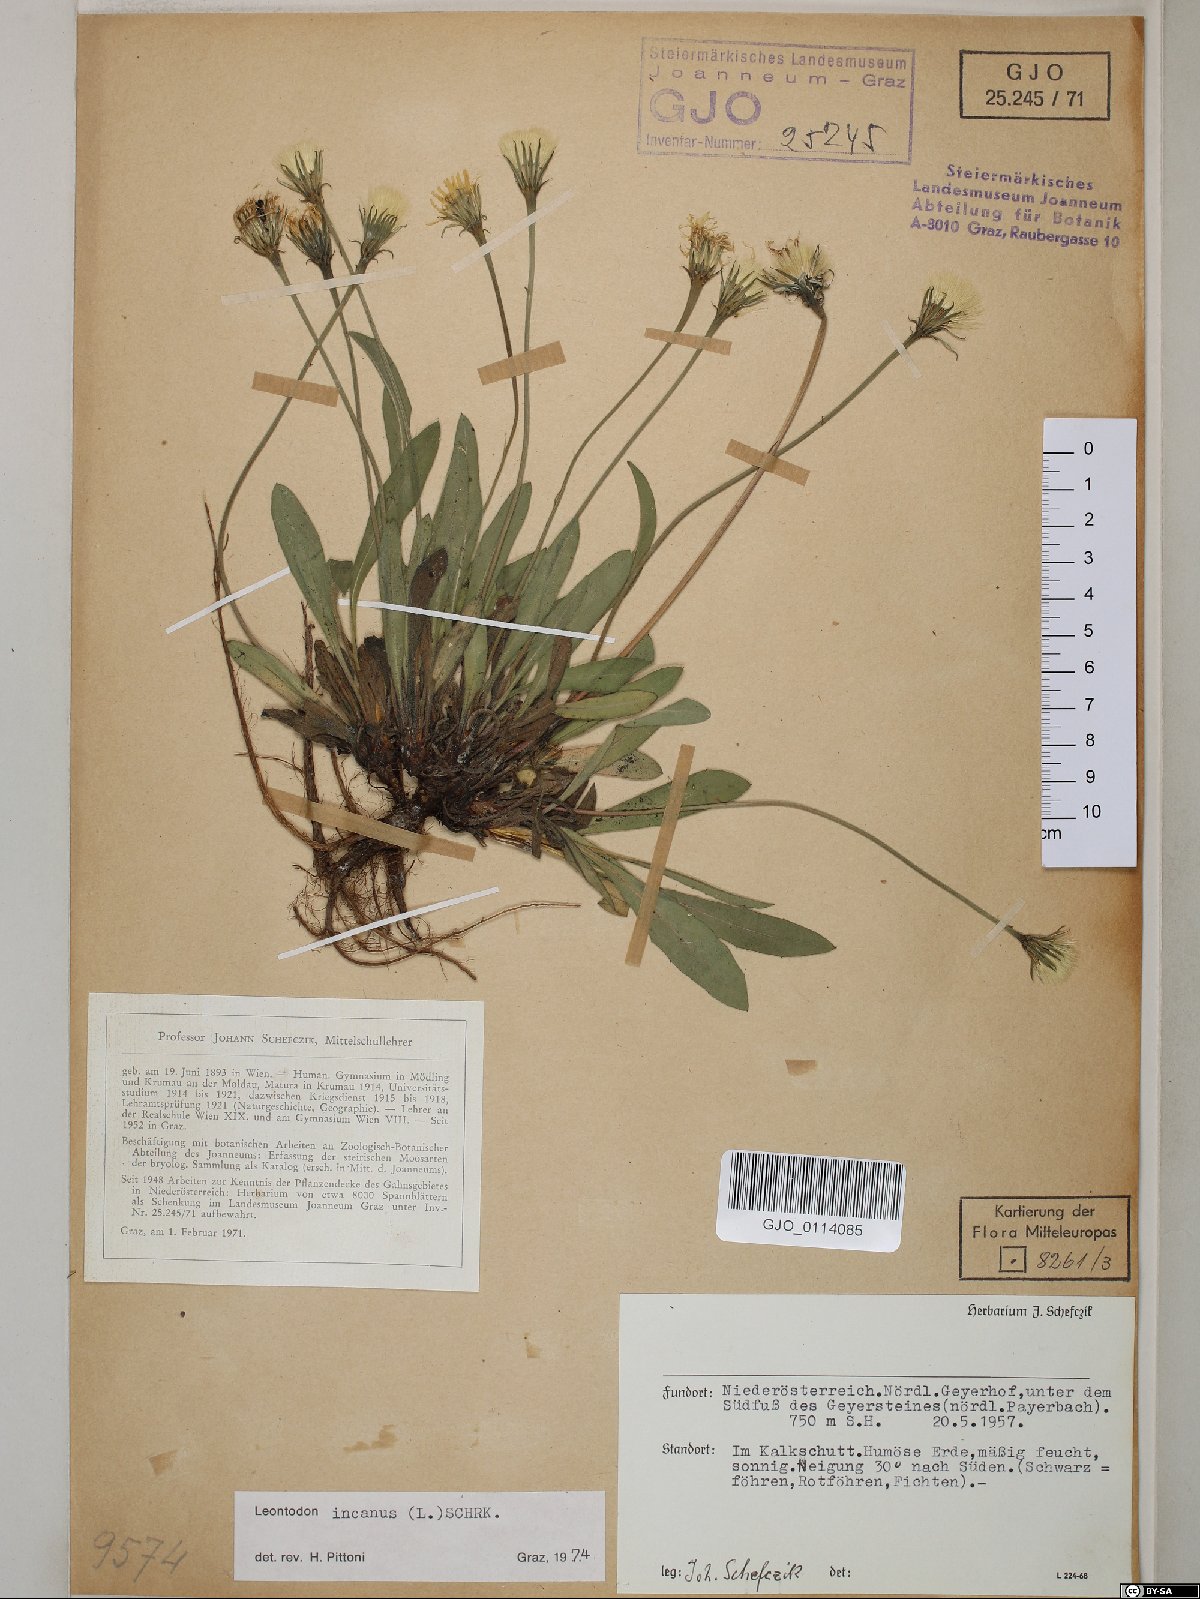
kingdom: Plantae
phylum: Tracheophyta
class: Magnoliopsida
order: Asterales
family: Asteraceae
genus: Leontodon
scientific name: Leontodon incanus
